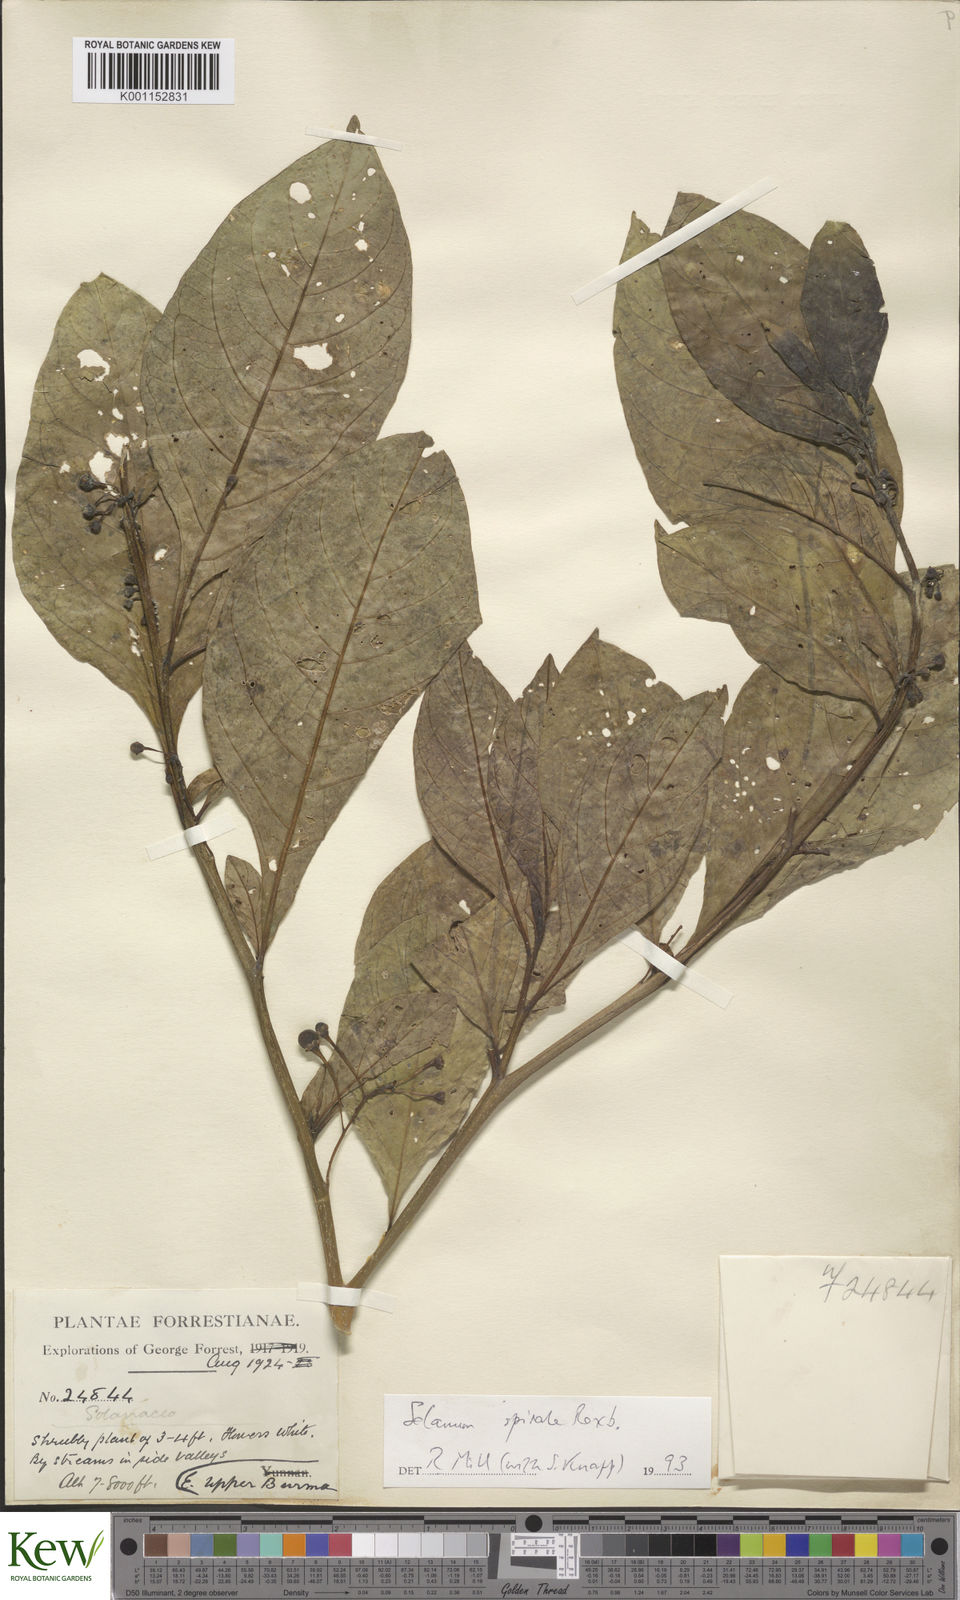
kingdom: Plantae
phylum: Tracheophyta
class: Magnoliopsida
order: Solanales
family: Solanaceae
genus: Solanum
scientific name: Solanum spirale
